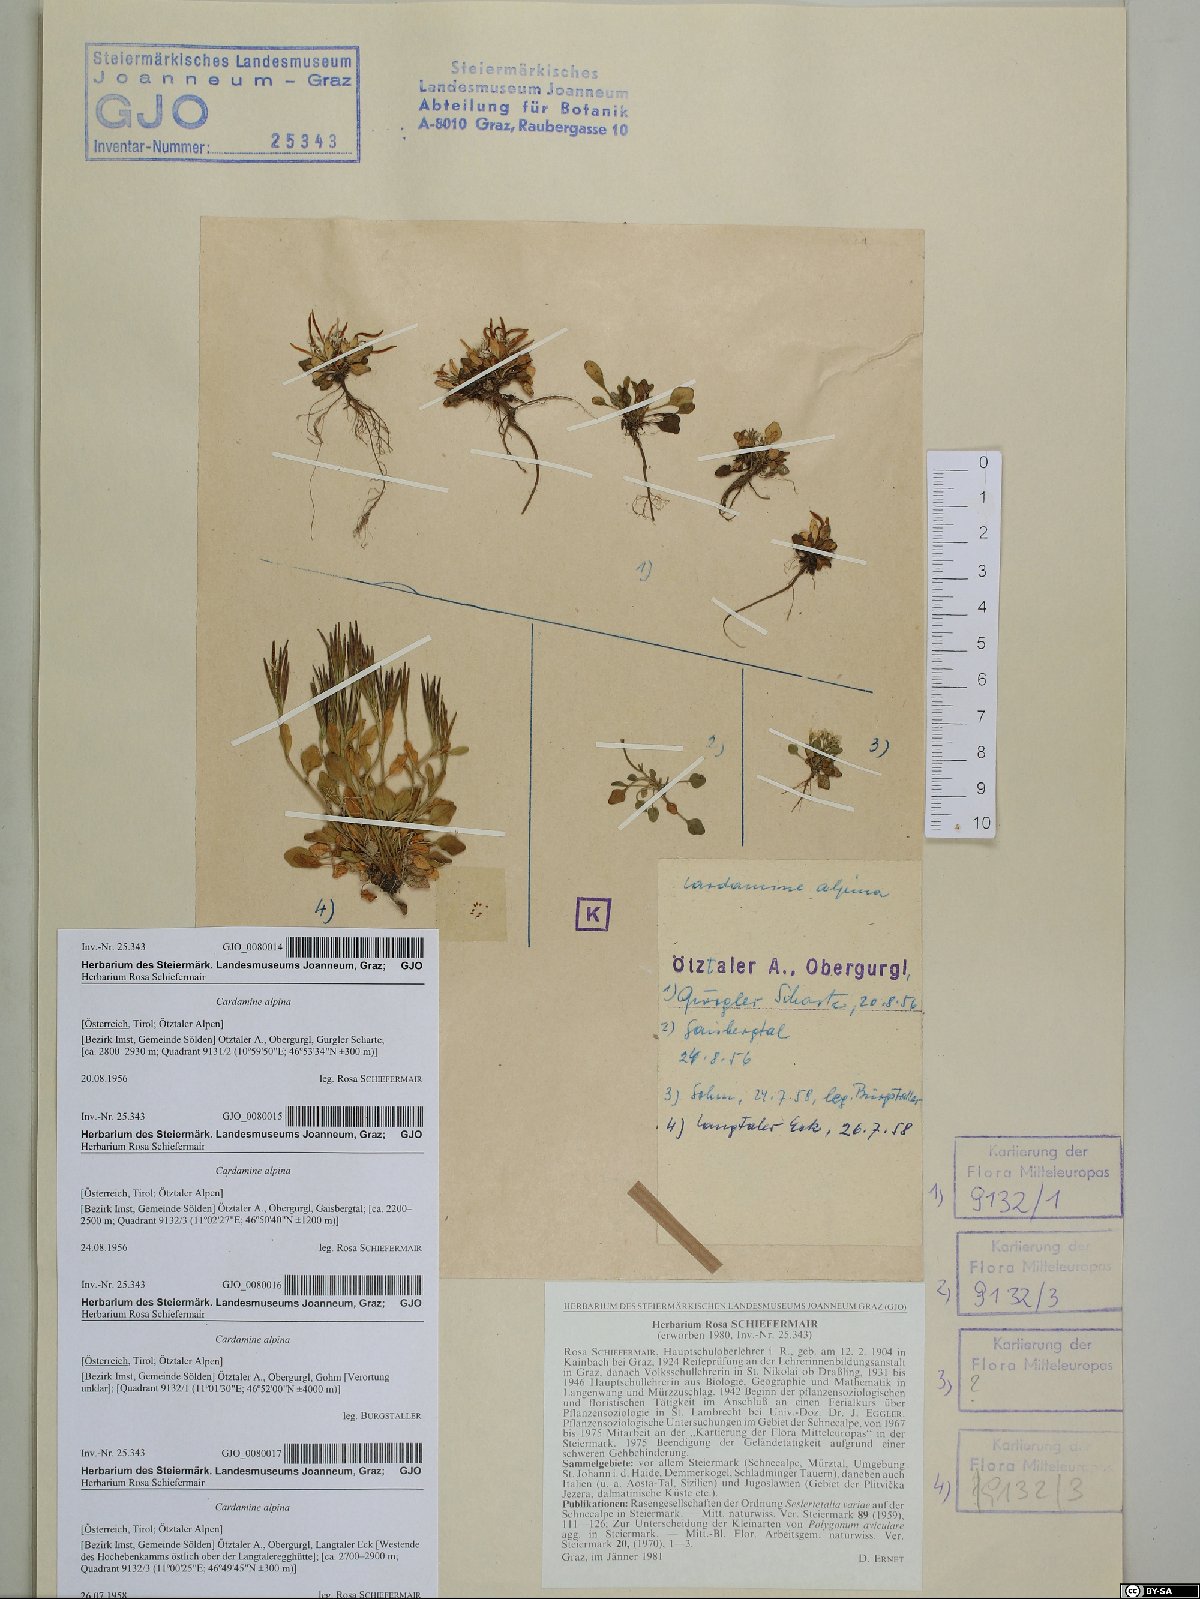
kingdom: Plantae
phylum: Tracheophyta
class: Magnoliopsida
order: Brassicales
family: Brassicaceae
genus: Cardamine
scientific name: Cardamine bellidifolia
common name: Alpine bittercress
